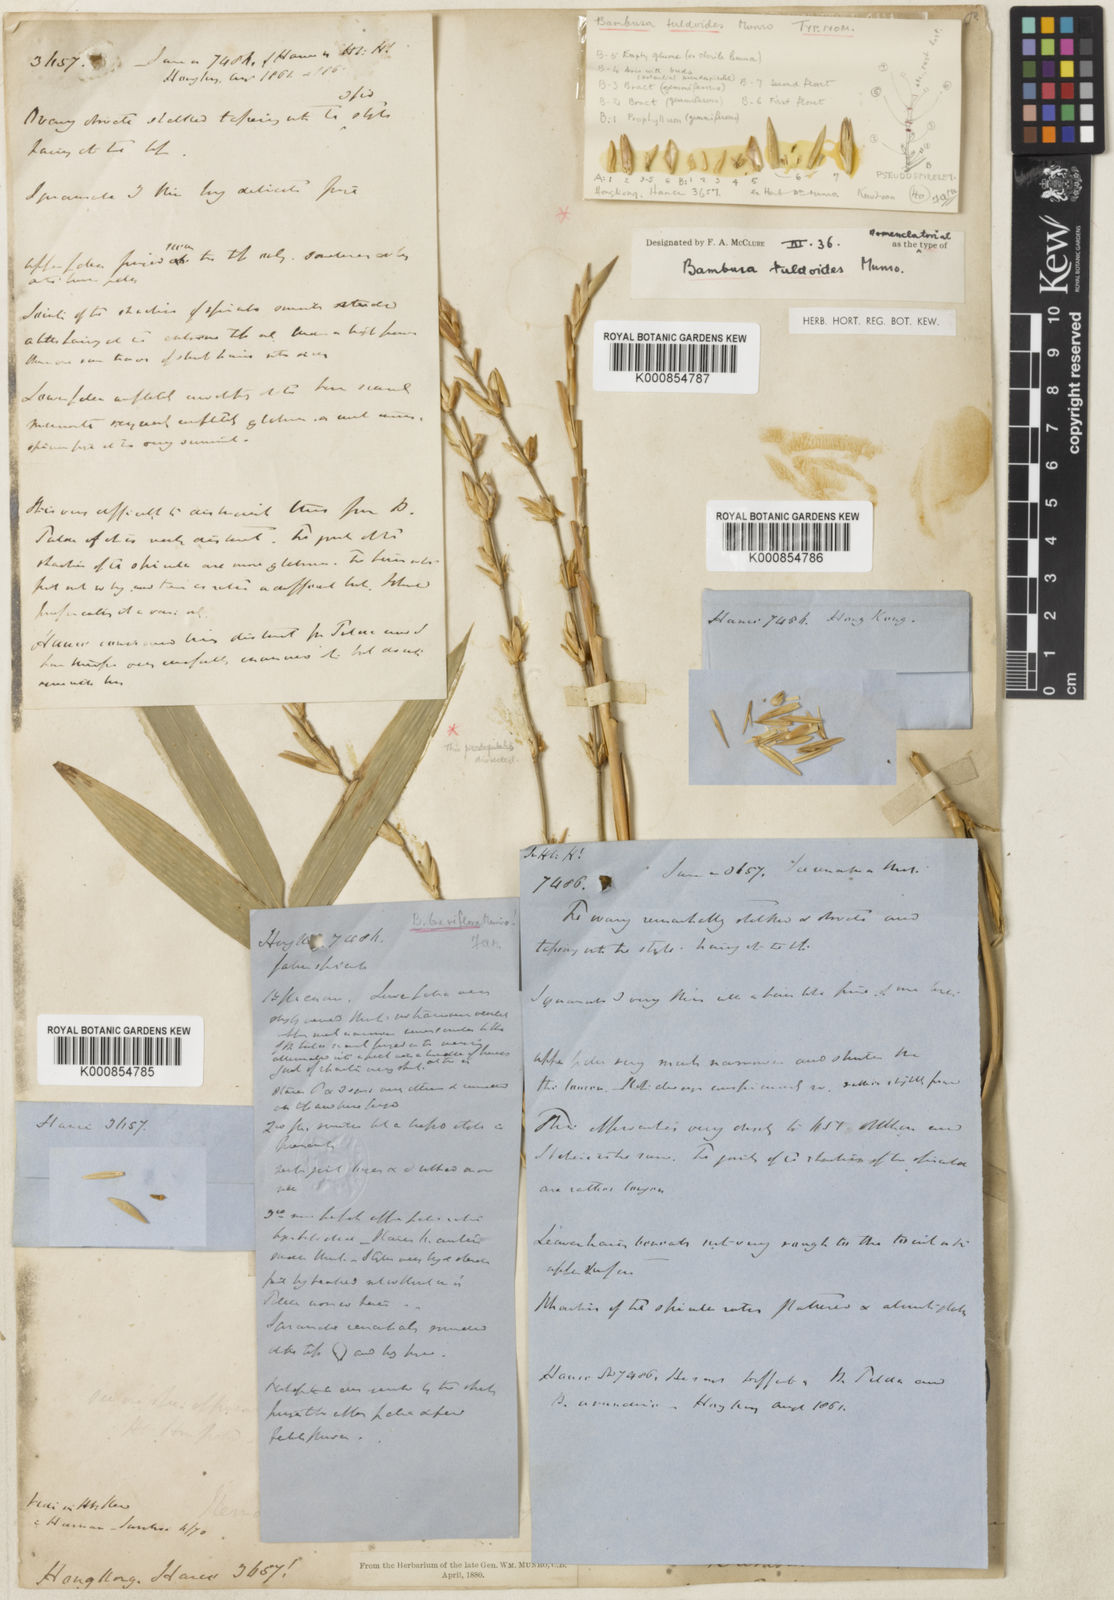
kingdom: Plantae
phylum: Tracheophyta
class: Liliopsida
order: Poales
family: Poaceae
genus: Bambusa
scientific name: Bambusa tuldoides
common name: Verdant bamboo
